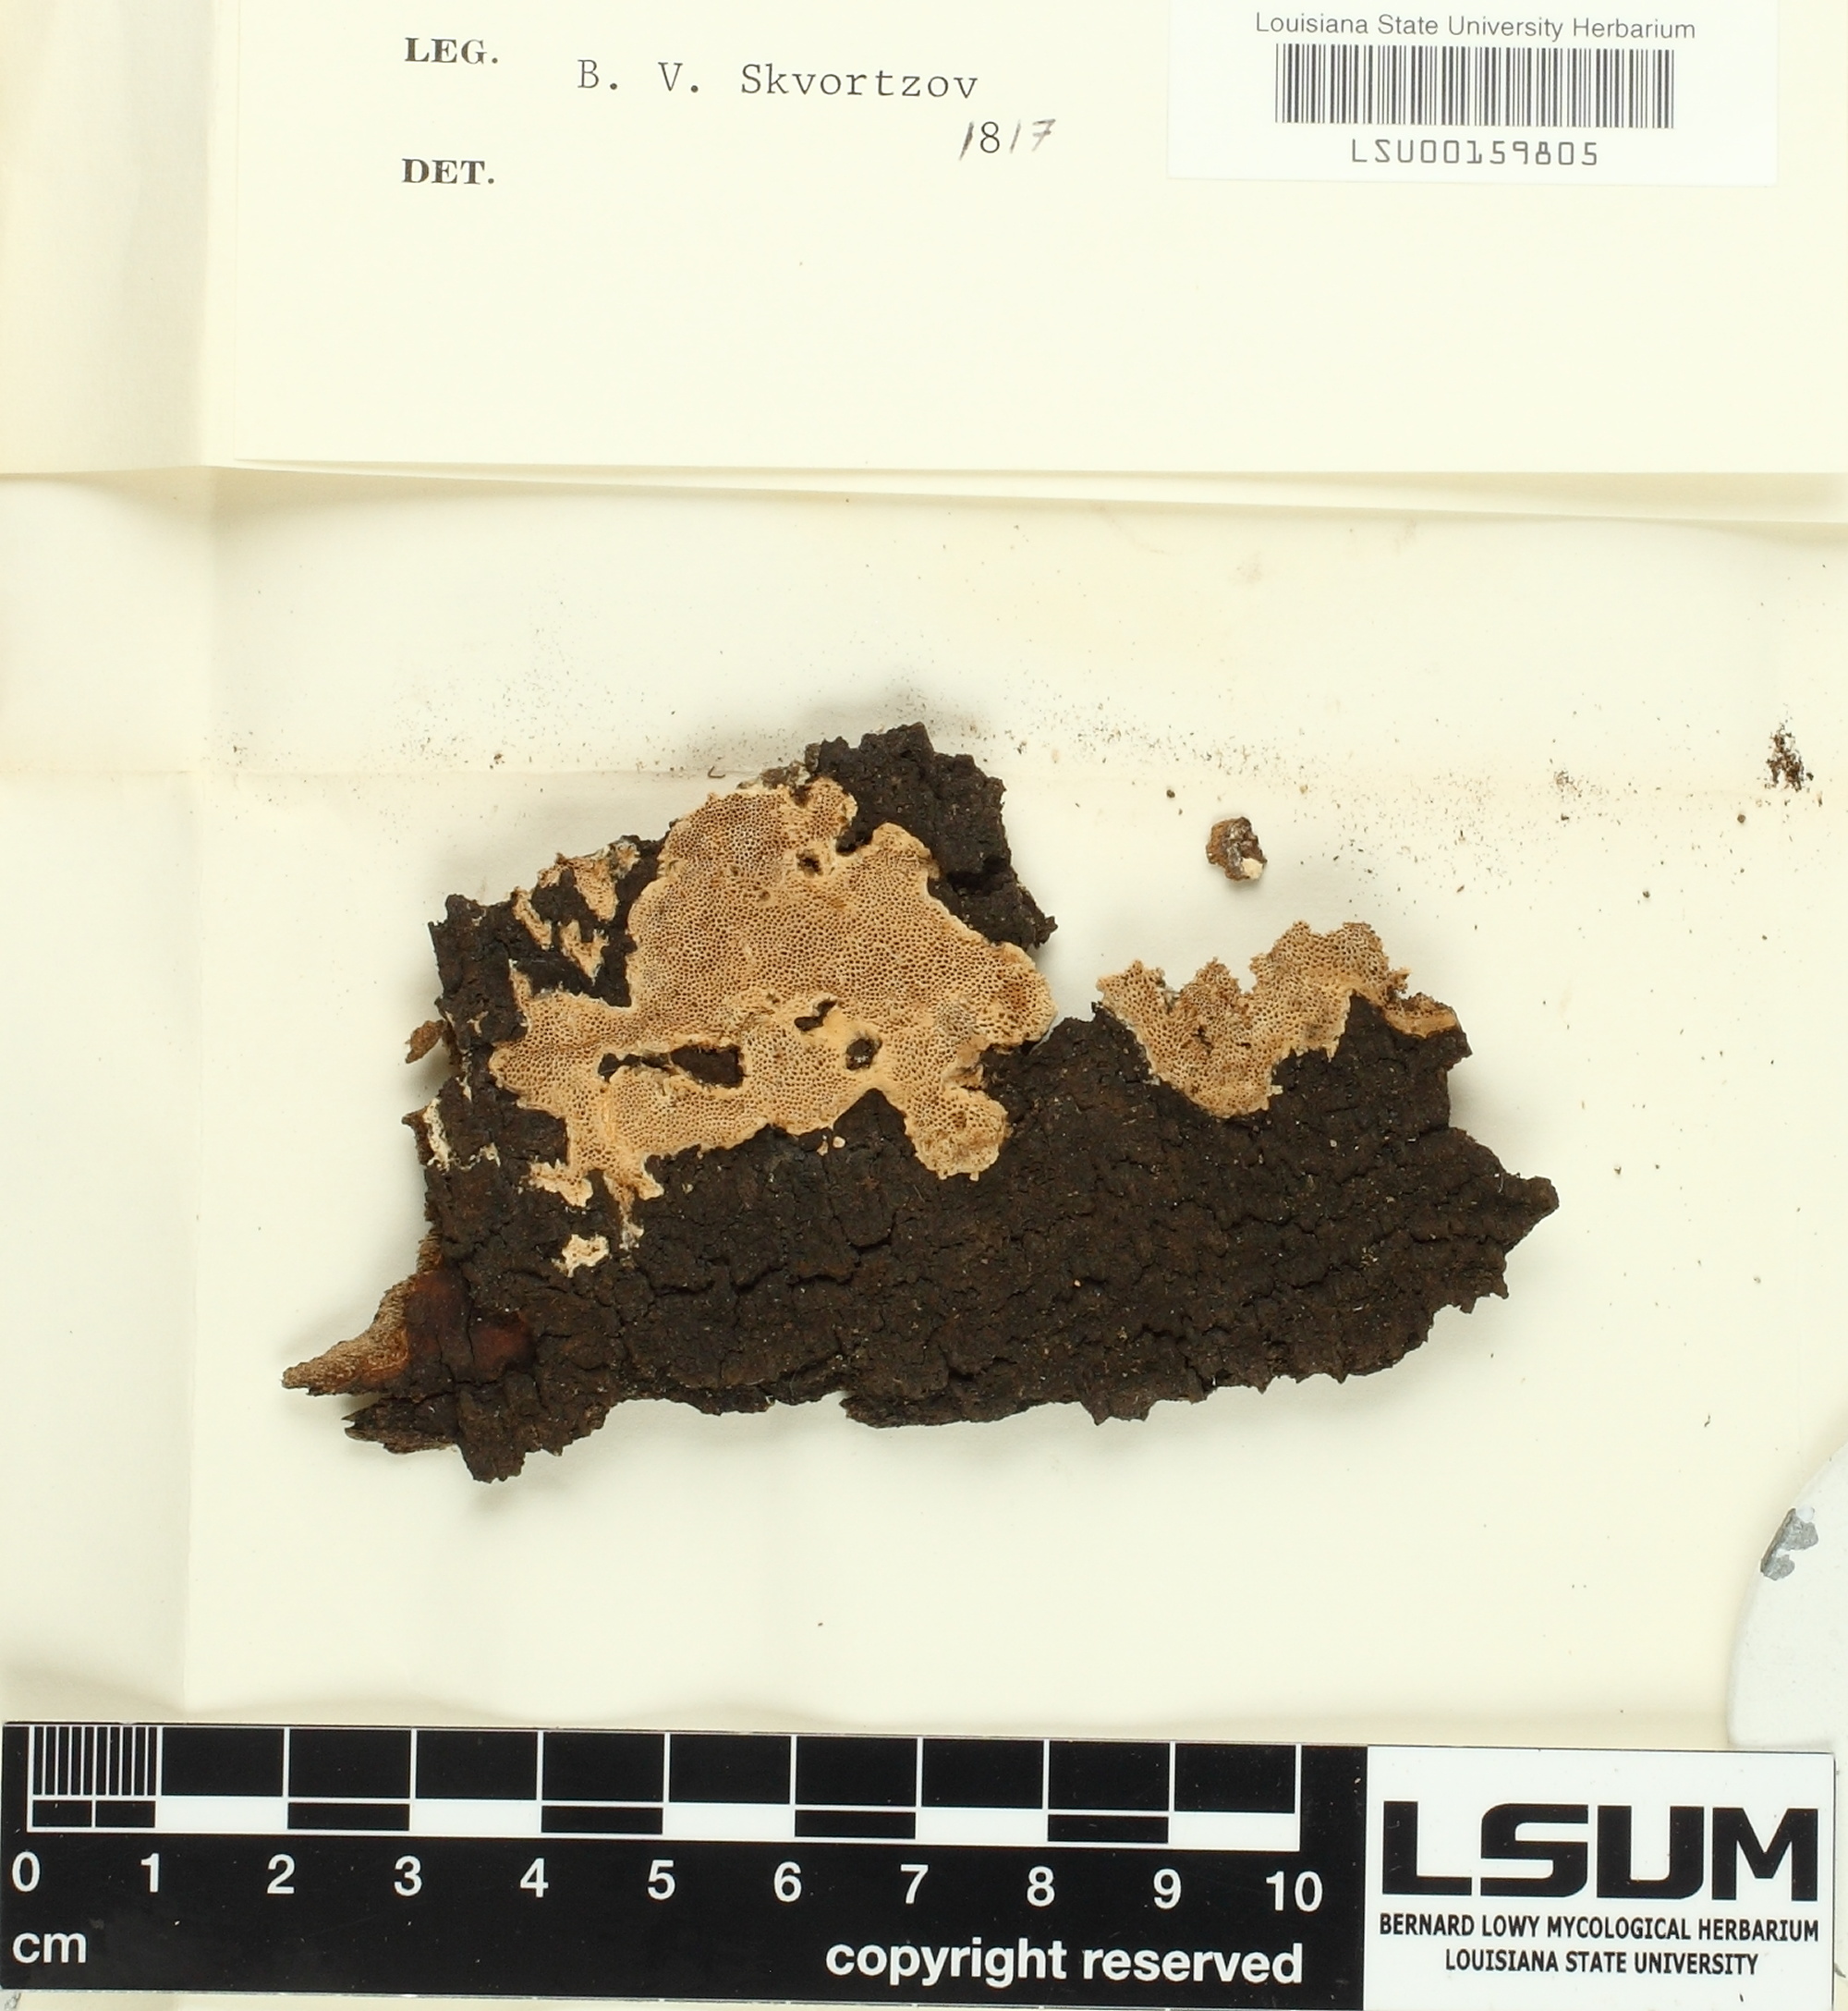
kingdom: Fungi
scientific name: Fungi
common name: Fungi
